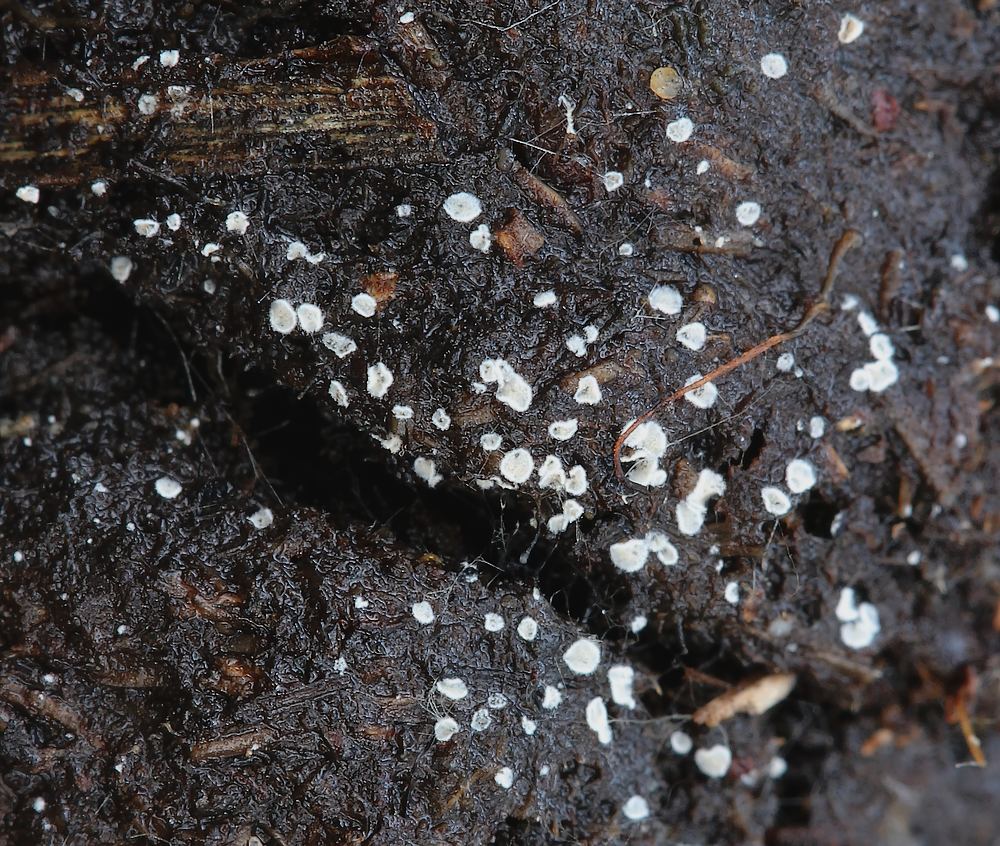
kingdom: Fungi
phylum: Basidiomycota
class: Agaricomycetes
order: Agaricales
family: Crepidotaceae
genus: Pellidiscus
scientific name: Pellidiscus pallidus
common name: skålformet muslingesvamp
